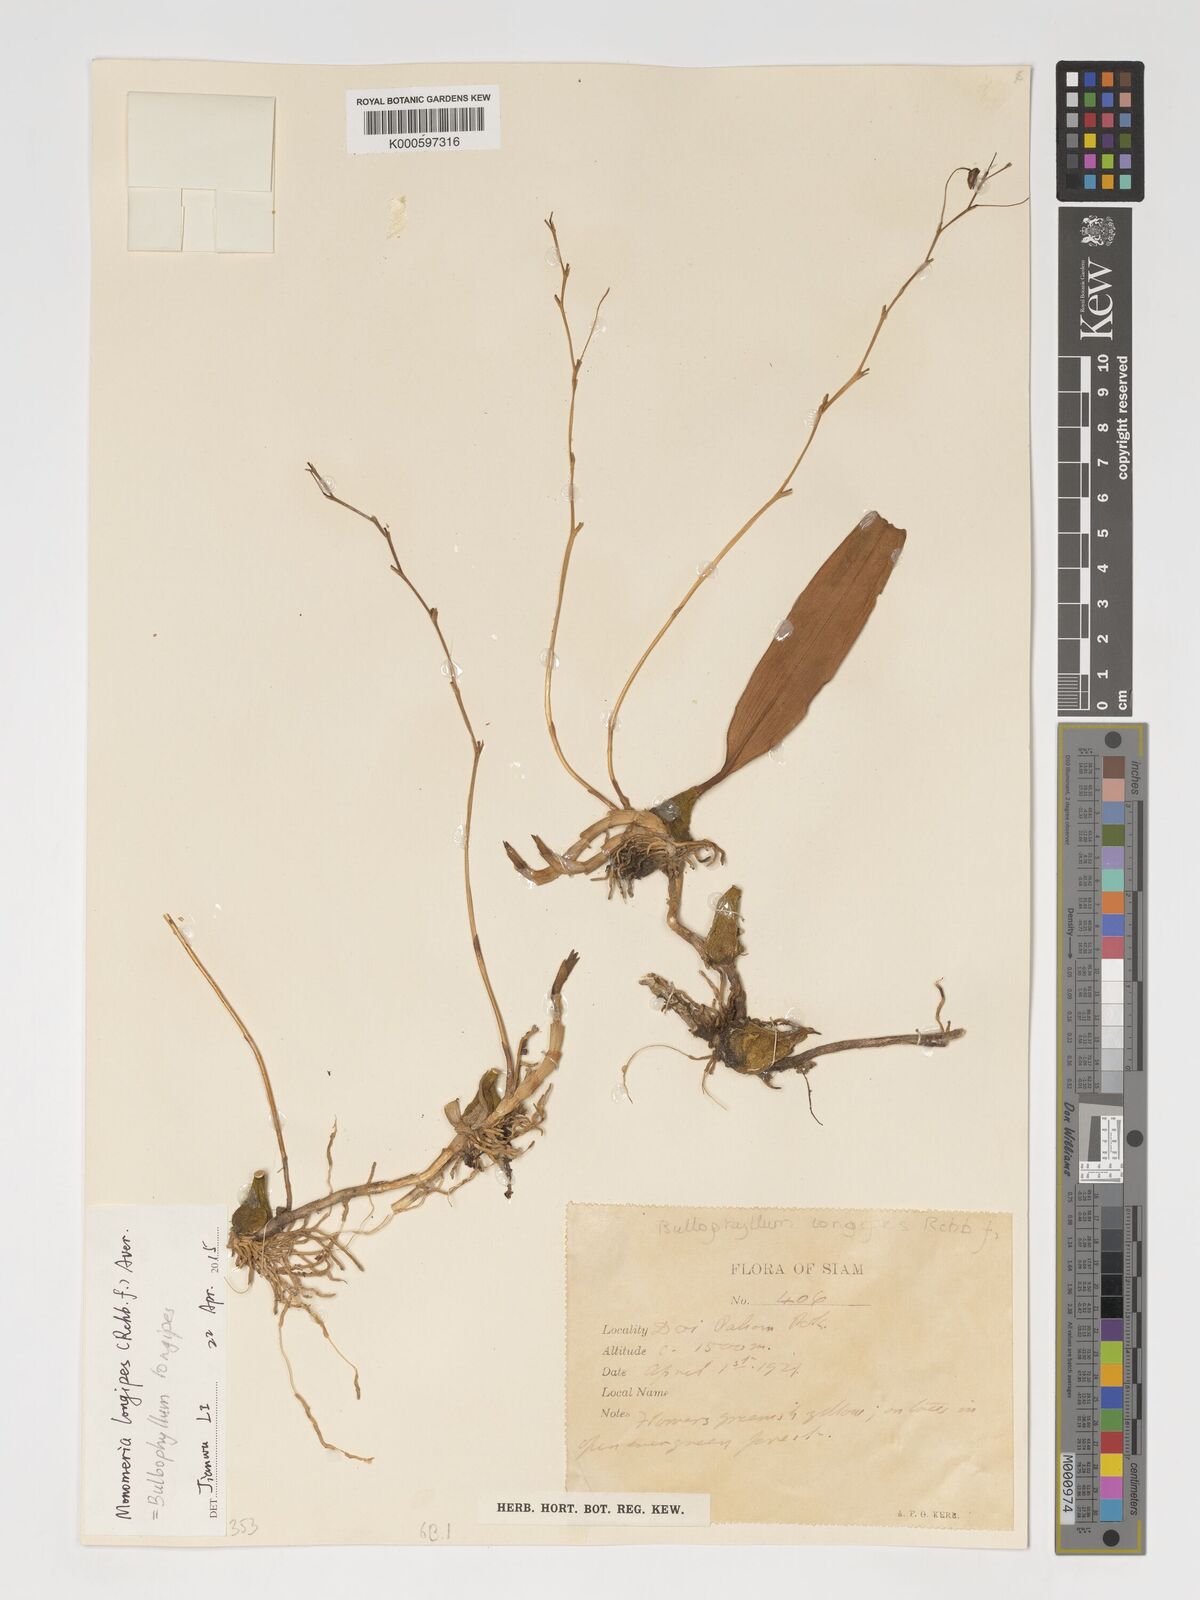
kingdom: Plantae
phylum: Tracheophyta
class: Liliopsida
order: Asparagales
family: Orchidaceae
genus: Bulbophyllum
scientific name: Bulbophyllum longipes
